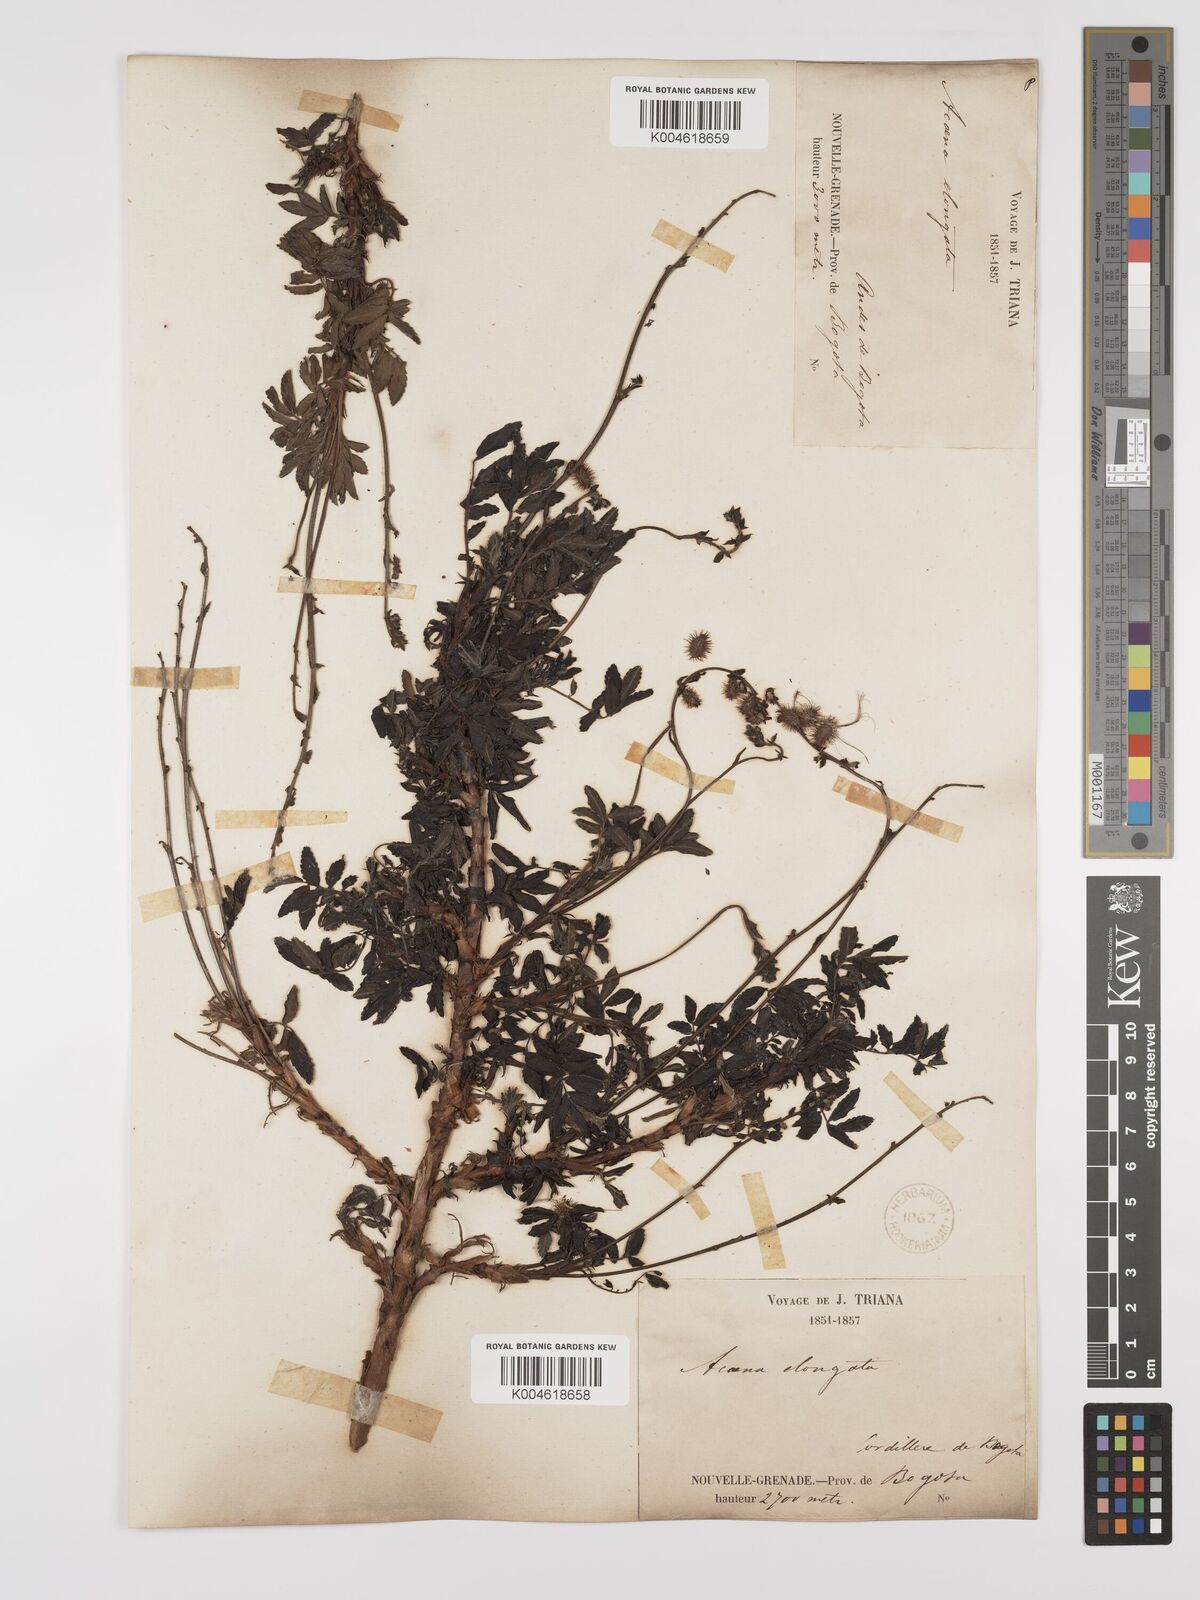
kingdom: Plantae
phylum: Tracheophyta
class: Magnoliopsida
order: Rosales
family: Rosaceae
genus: Acaena
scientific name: Acaena elongata
